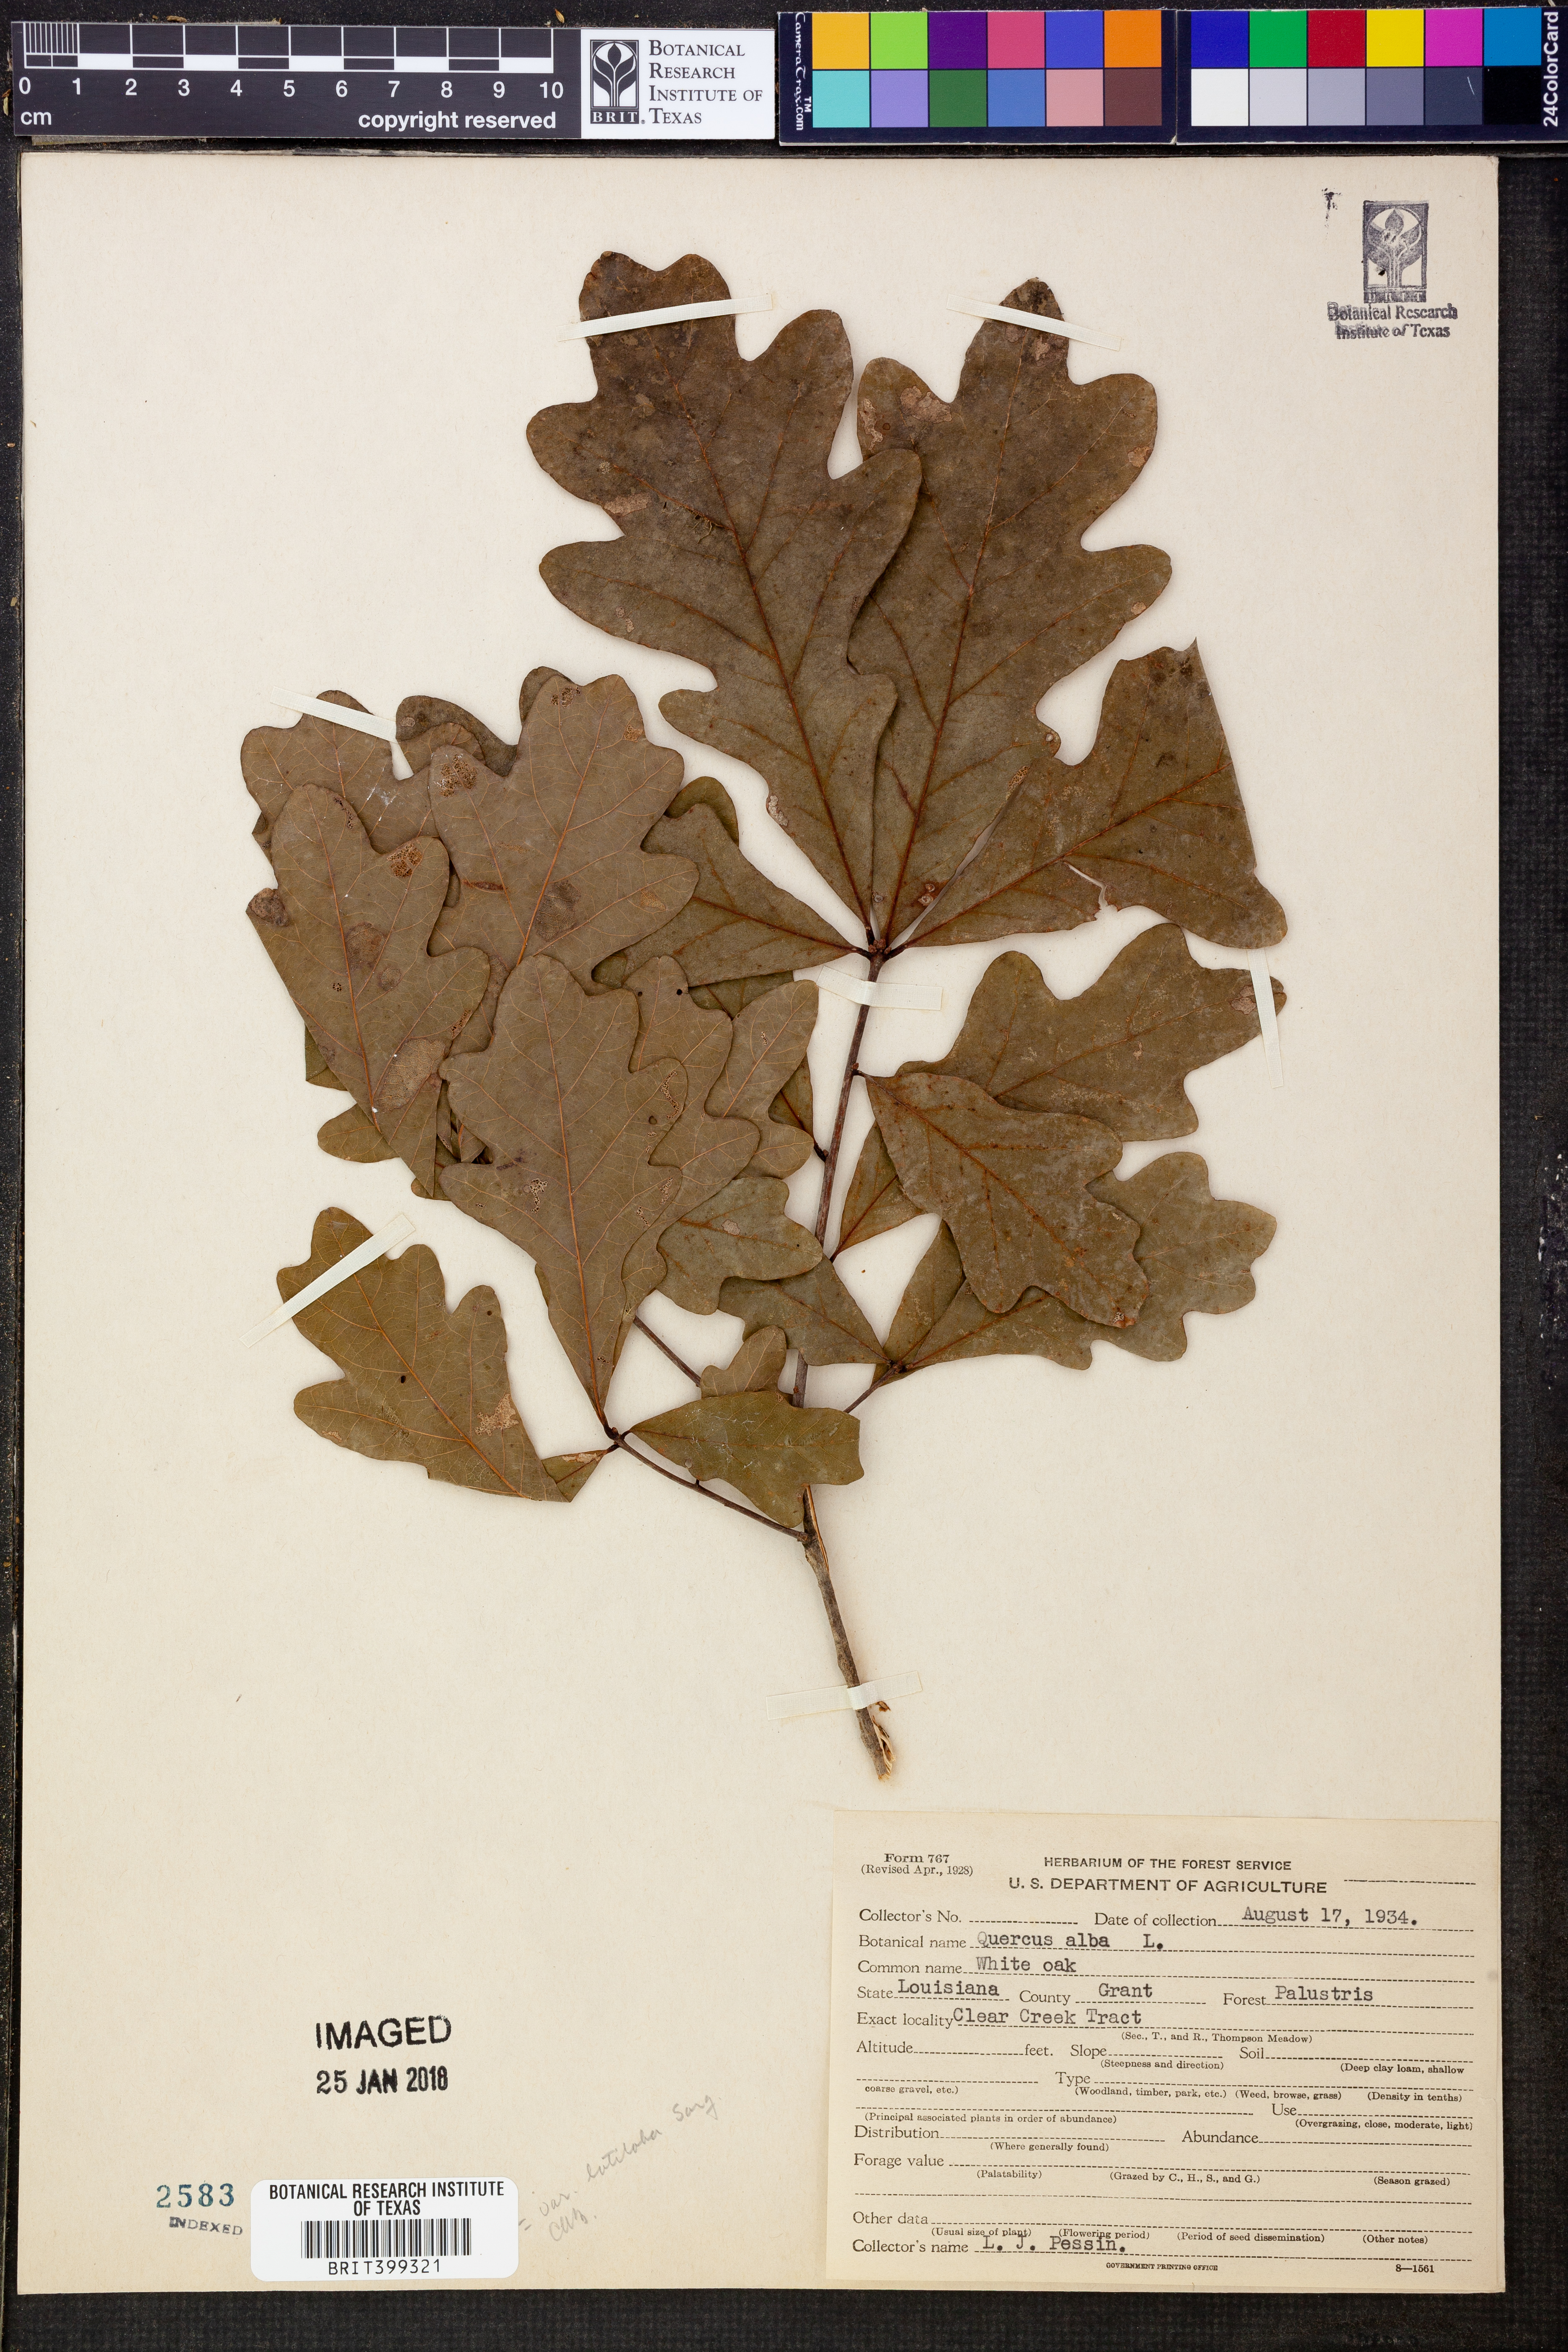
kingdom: Plantae
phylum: Tracheophyta
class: Magnoliopsida
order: Fagales
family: Fagaceae
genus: Quercus
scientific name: Quercus alba
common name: White oak
